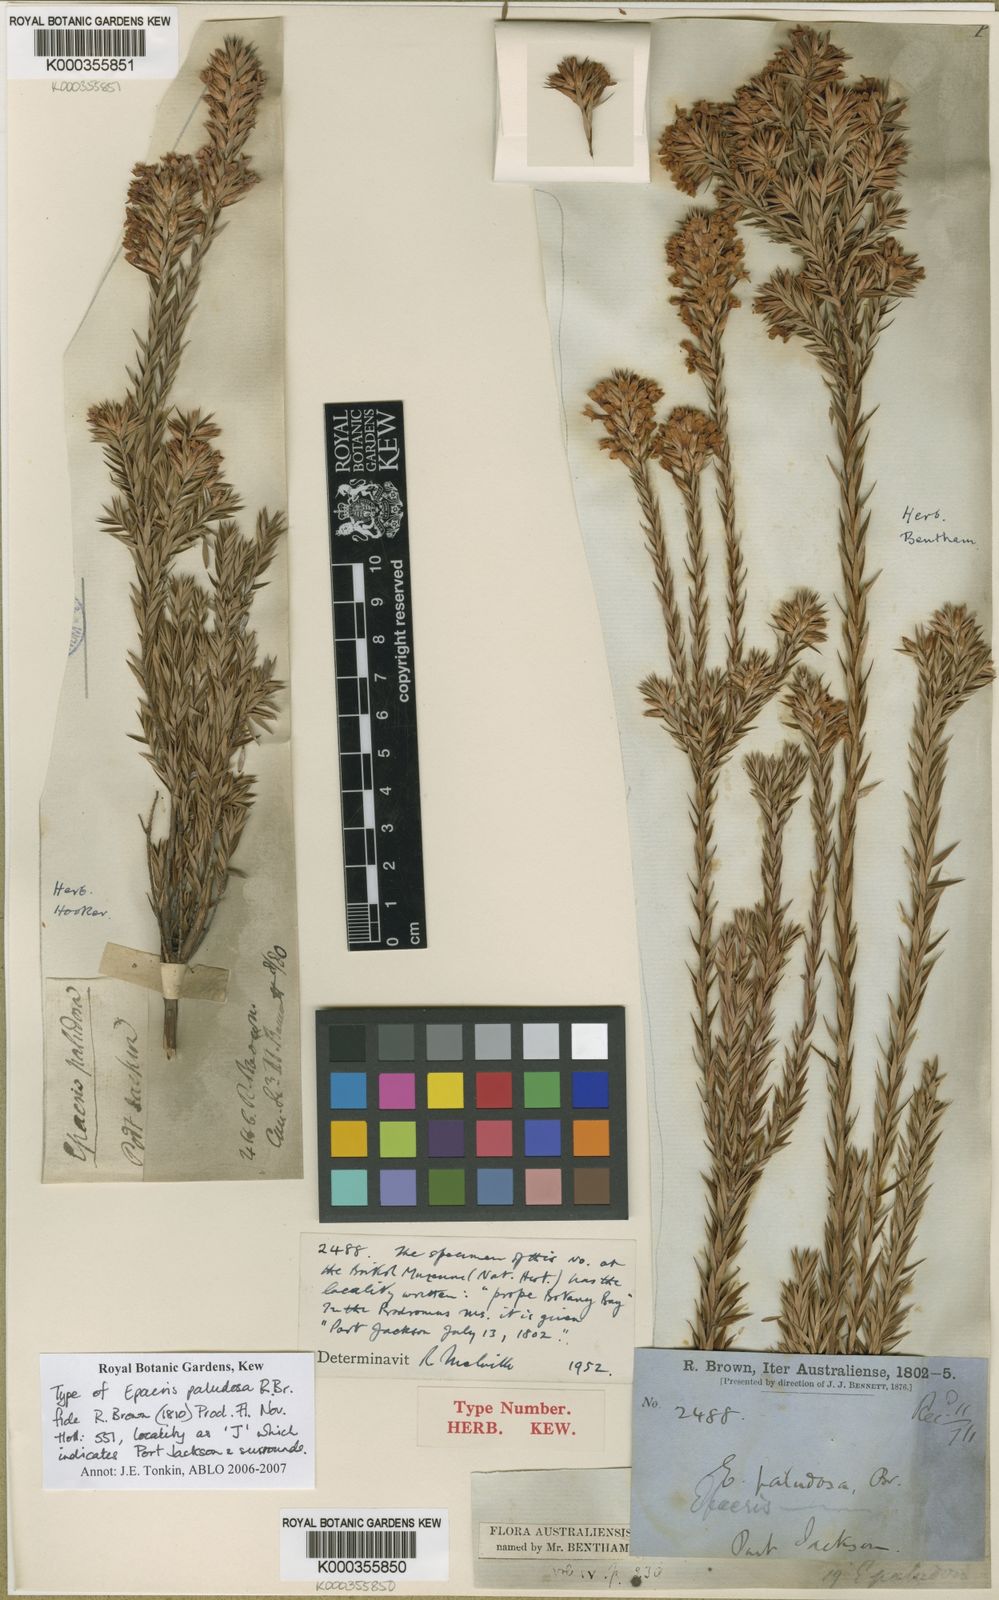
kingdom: Plantae
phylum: Tracheophyta
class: Magnoliopsida
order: Ericales
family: Ericaceae
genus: Epacris
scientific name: Epacris paludosa
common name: Swamp-heath
